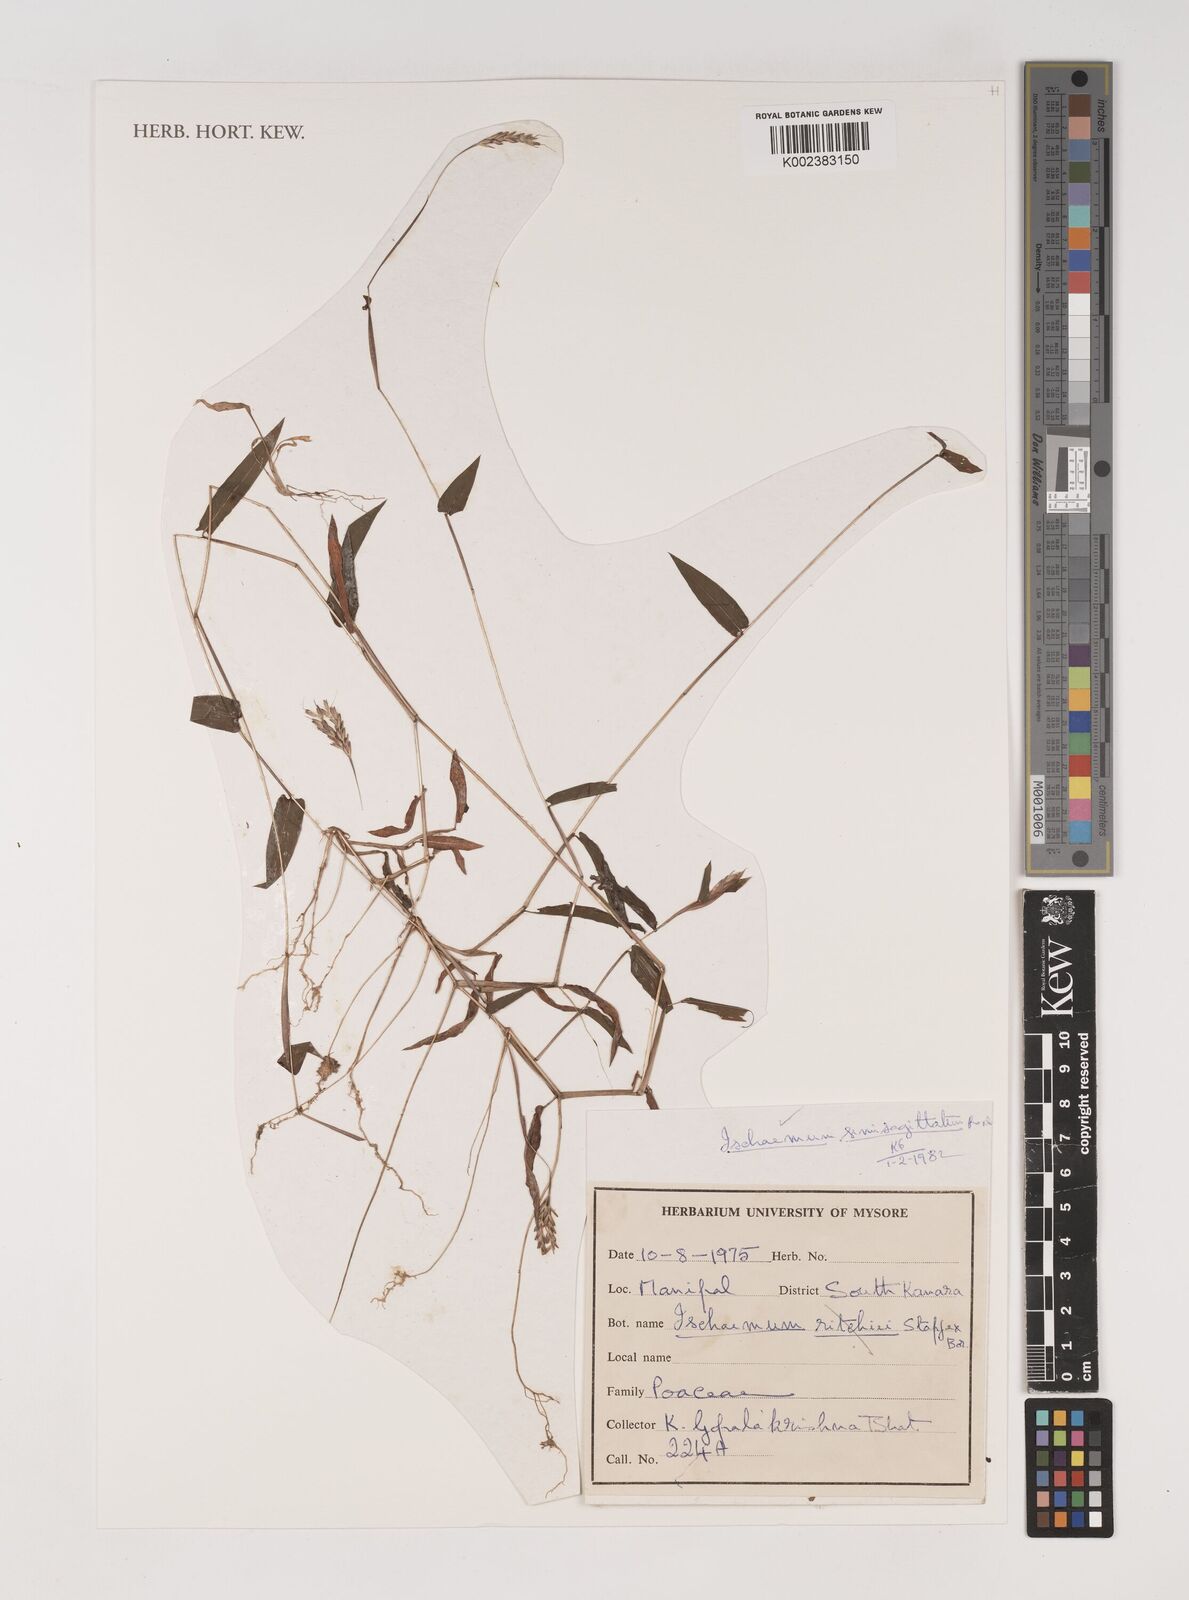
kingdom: Plantae
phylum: Tracheophyta
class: Liliopsida
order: Poales
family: Poaceae
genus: Ischaemum
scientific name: Ischaemum semisagittatum
